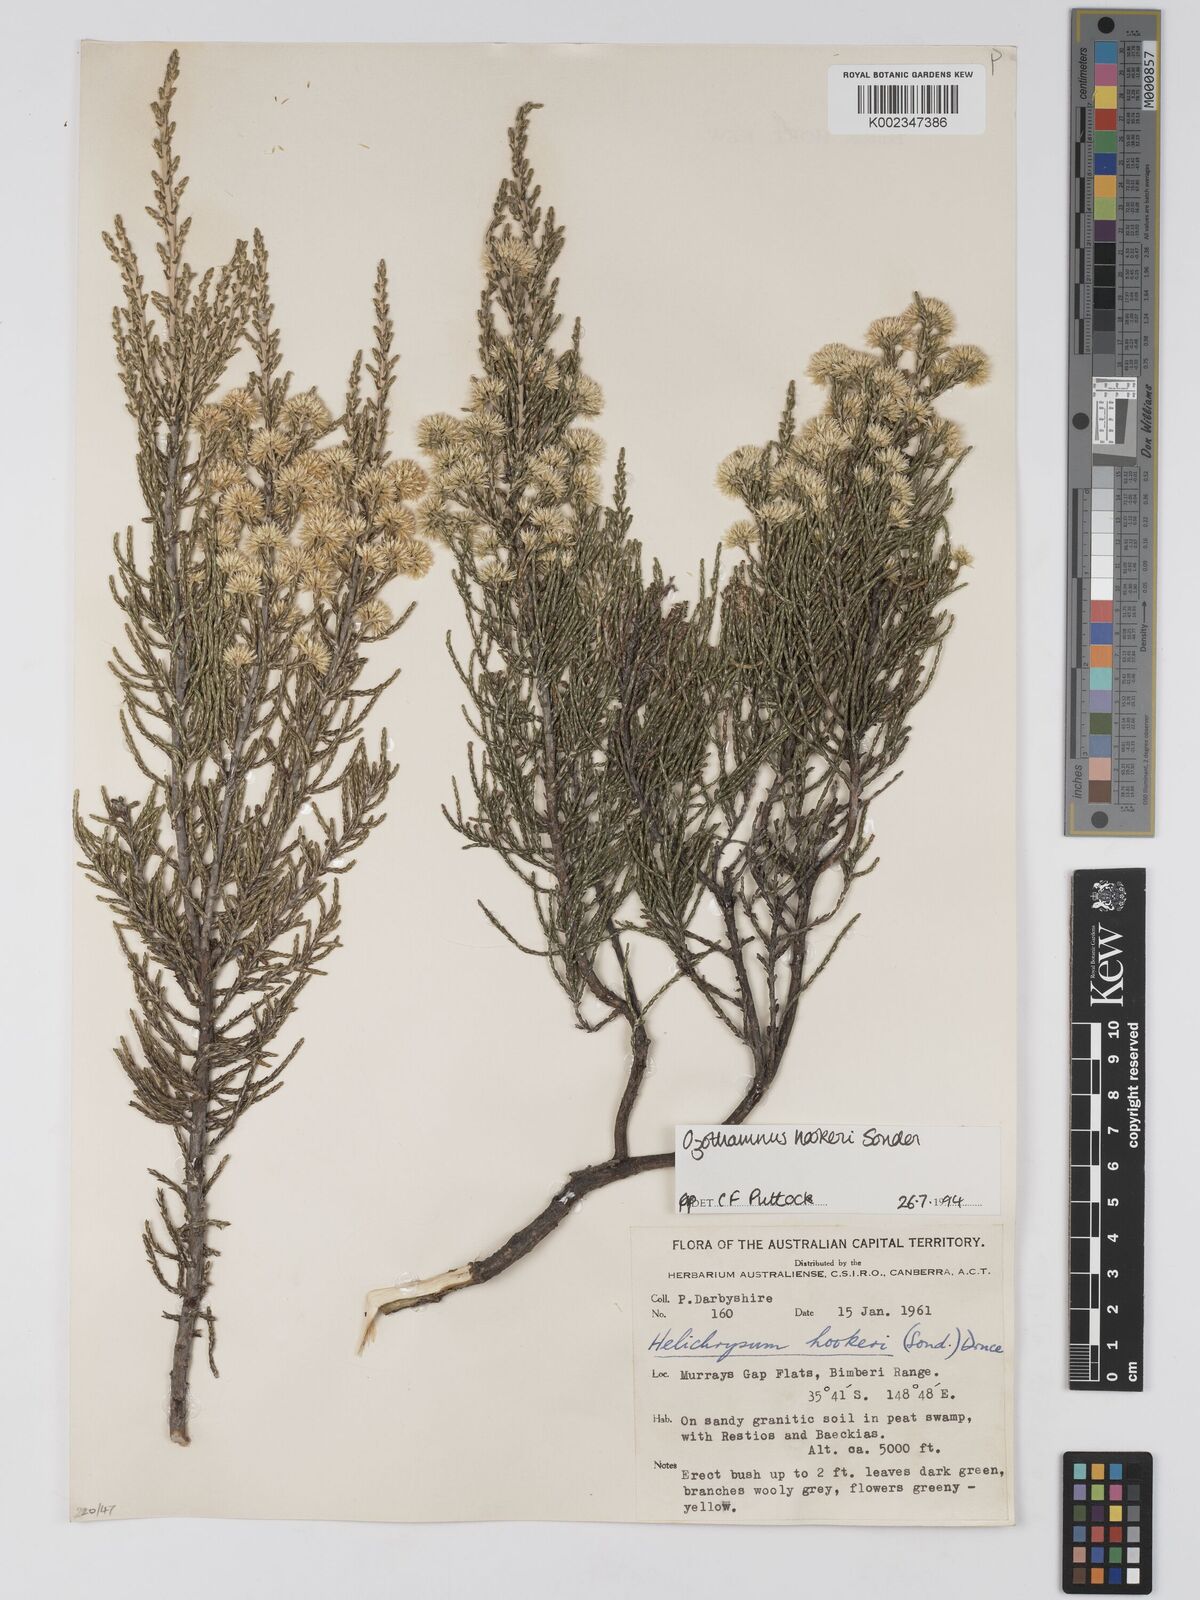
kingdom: Plantae
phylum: Tracheophyta
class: Magnoliopsida
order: Asterales
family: Asteraceae
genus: Ozothamnus
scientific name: Ozothamnus
